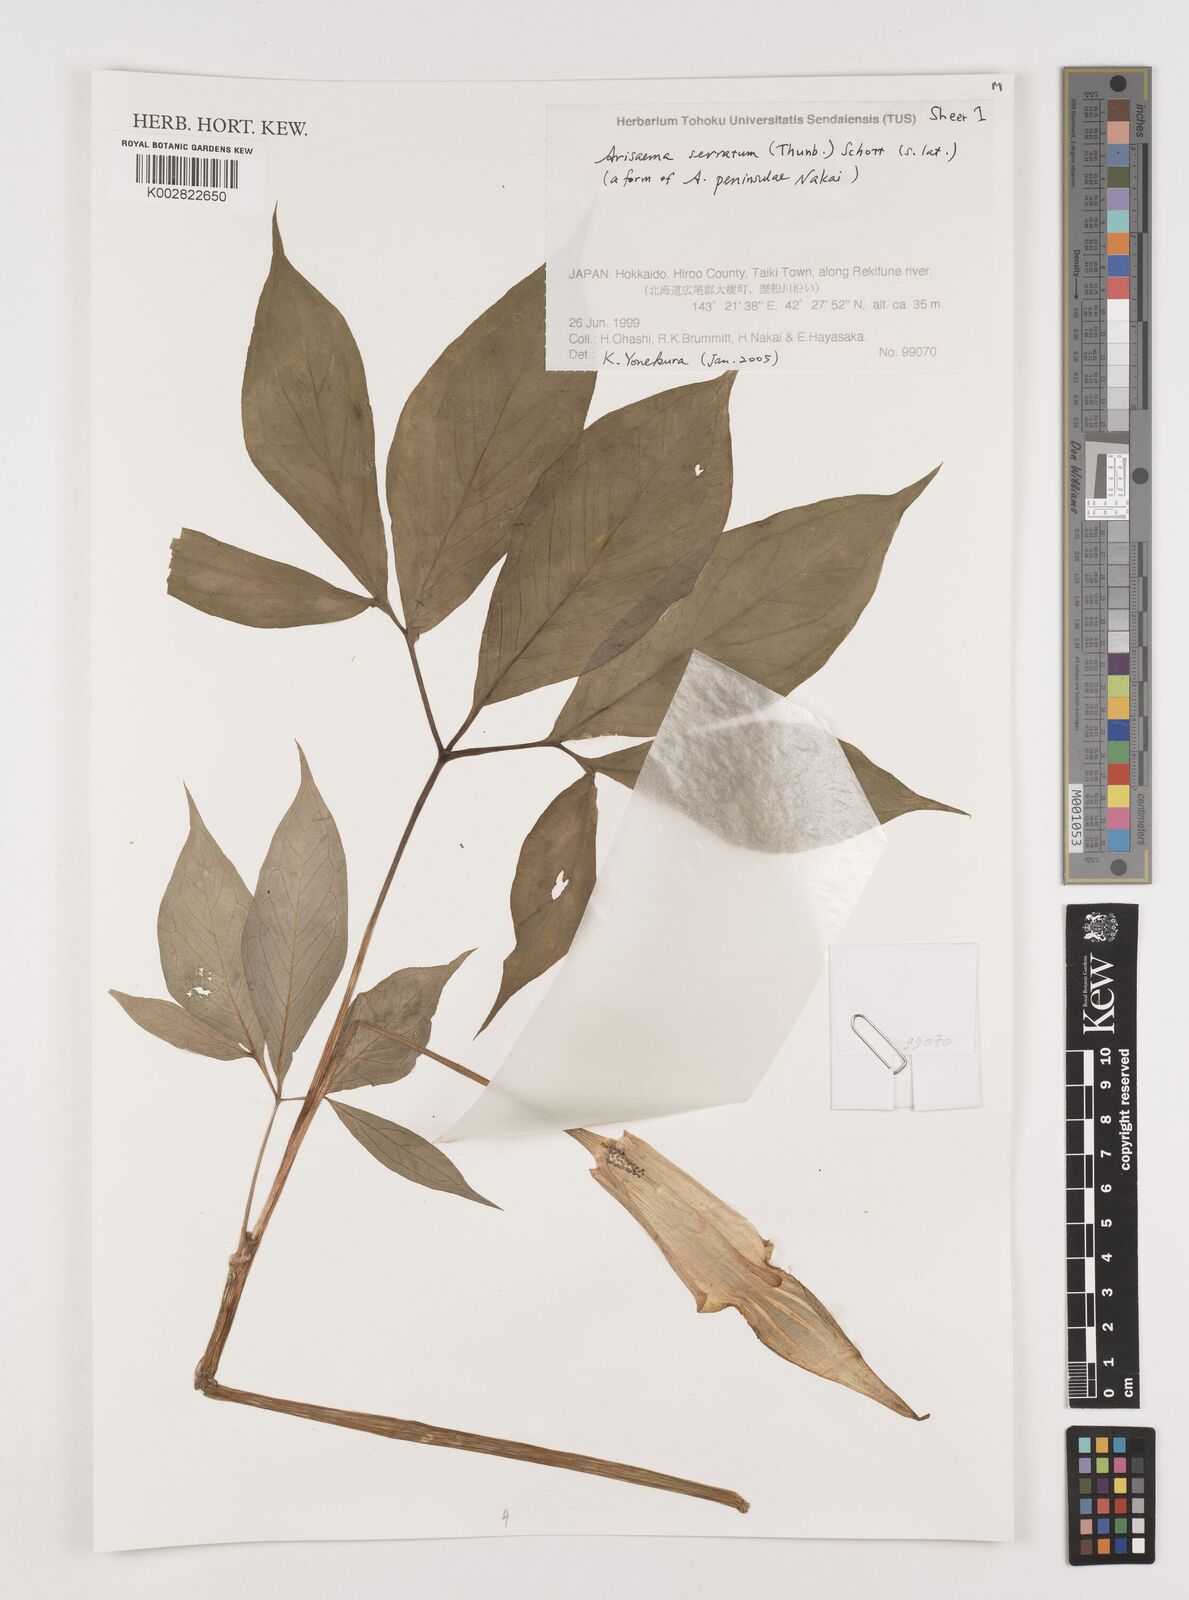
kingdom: Plantae
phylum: Tracheophyta
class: Liliopsida
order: Alismatales
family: Araceae
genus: Arisaema
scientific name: Arisaema serratum
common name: Japanese arisaema
